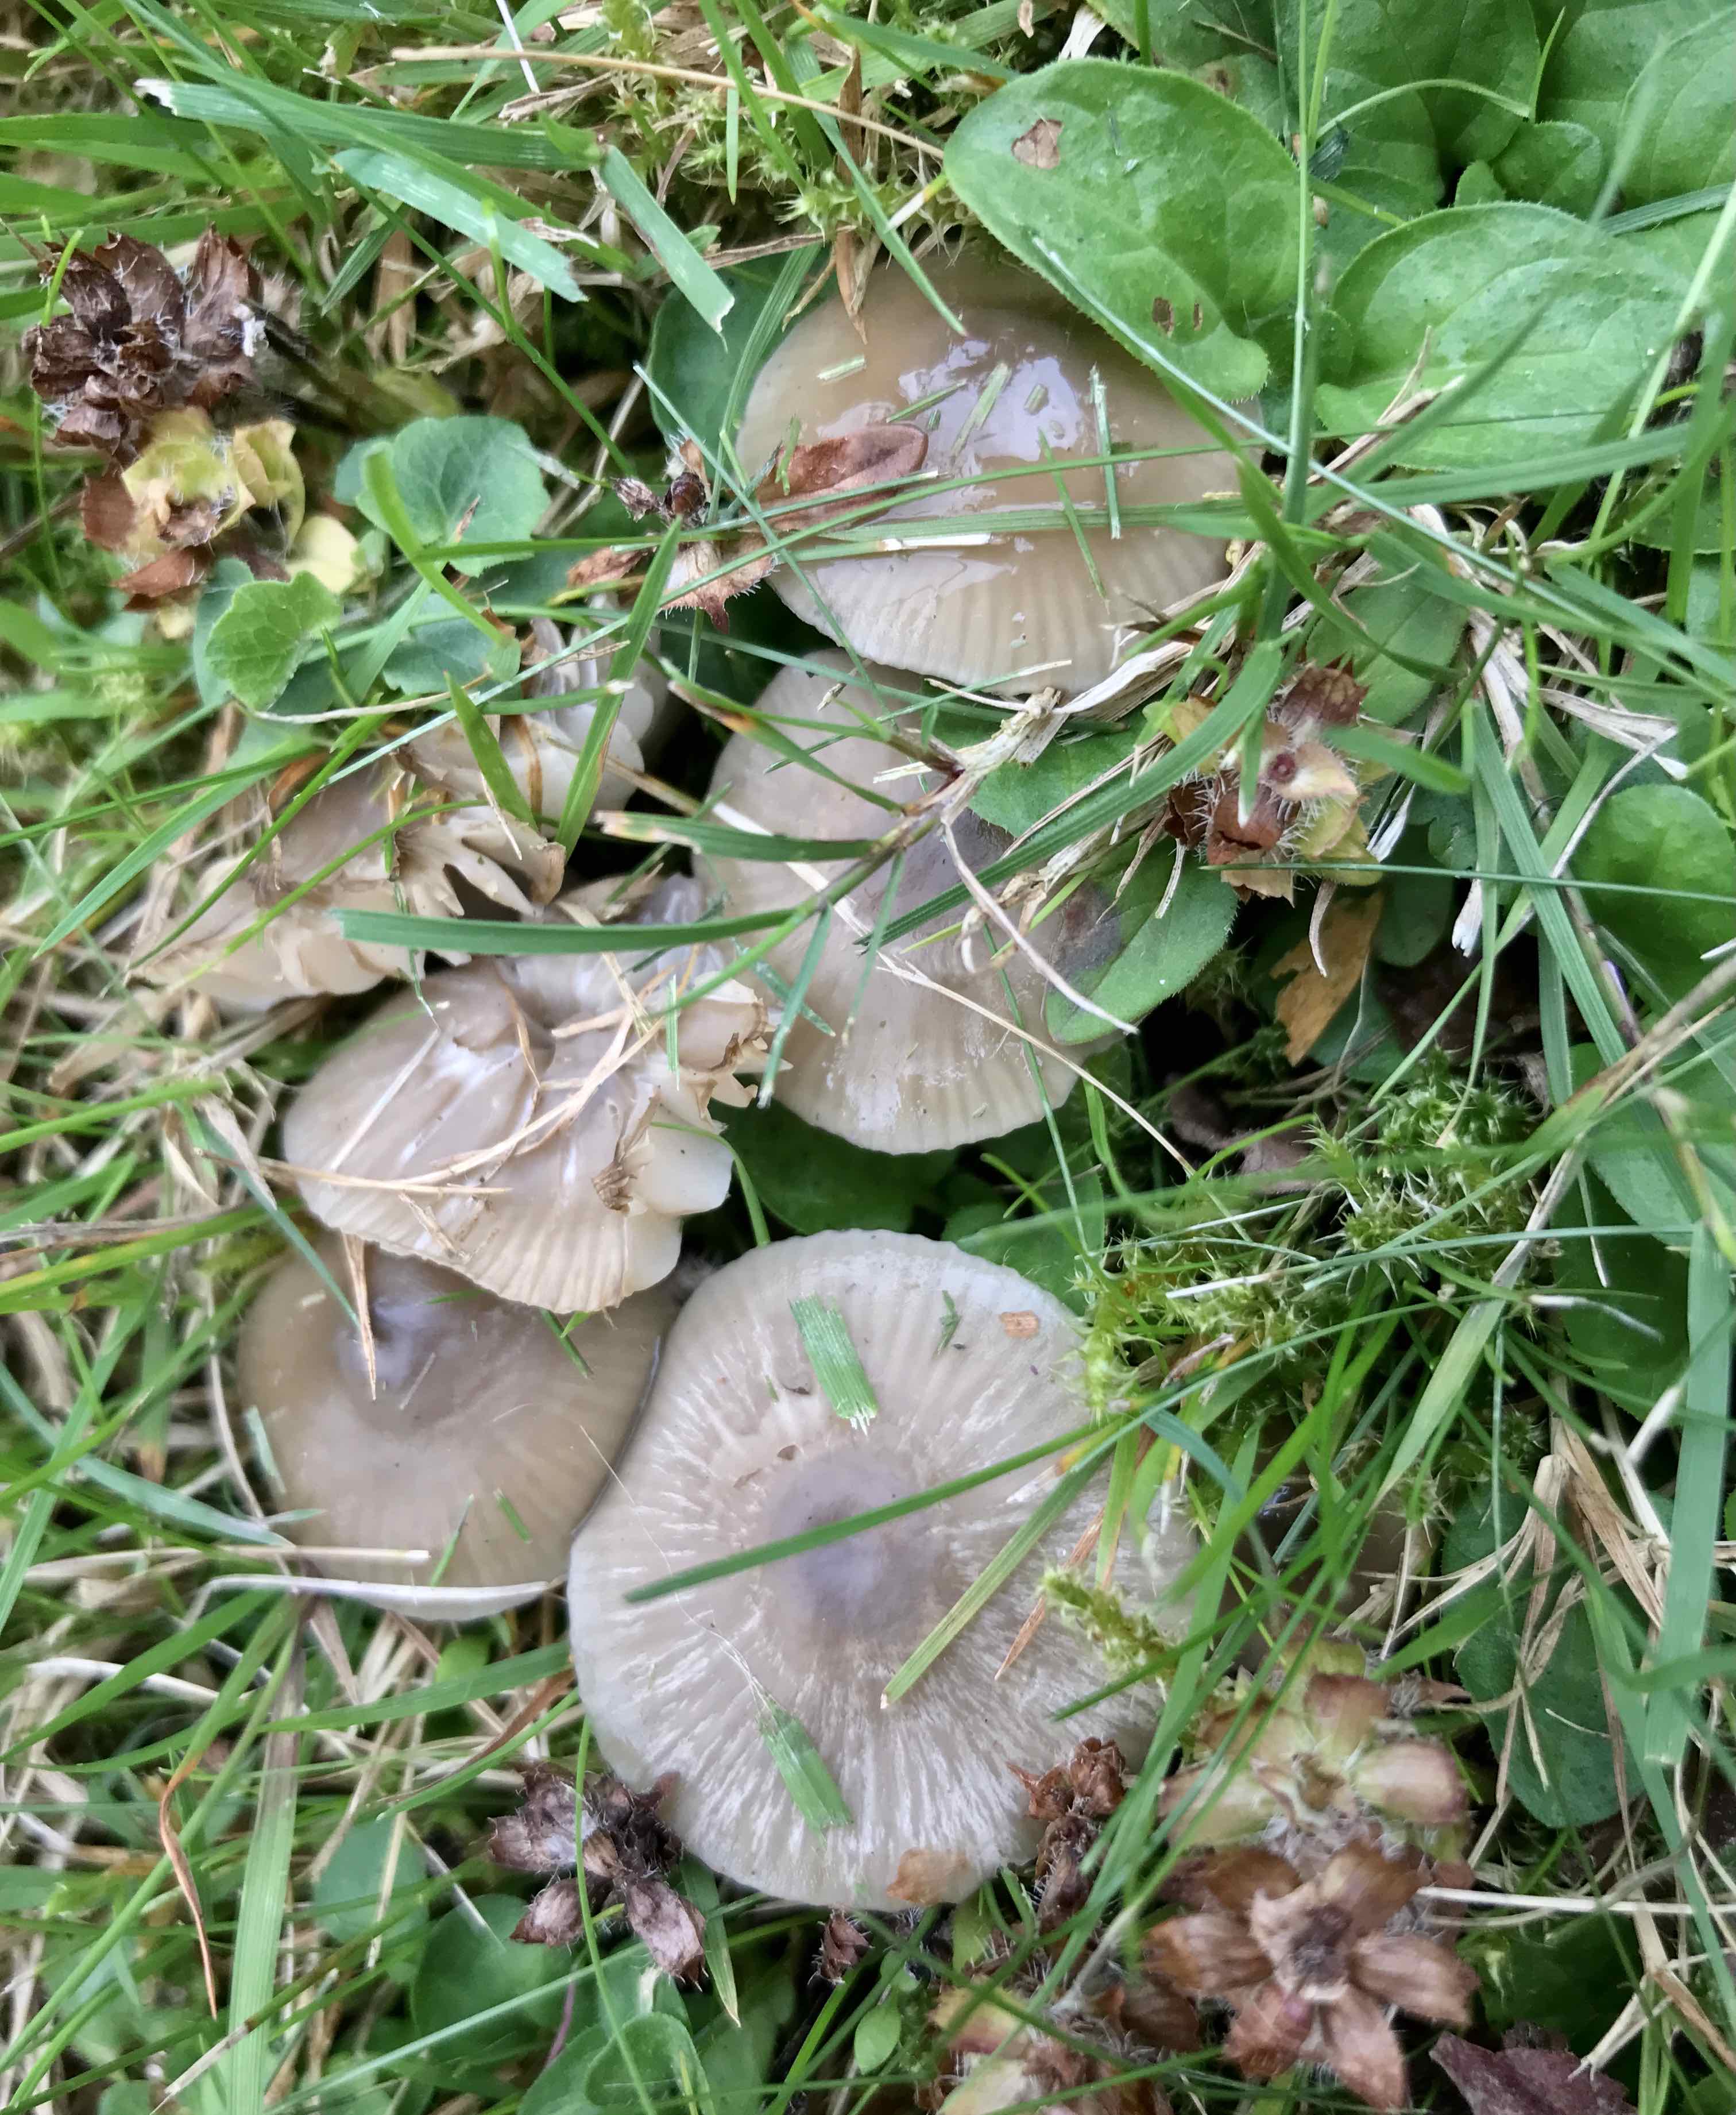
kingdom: Fungi
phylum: Basidiomycota
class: Agaricomycetes
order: Agaricales
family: Hygrophoraceae
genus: Gliophorus
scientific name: Gliophorus irrigatus
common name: slimet vokshat
